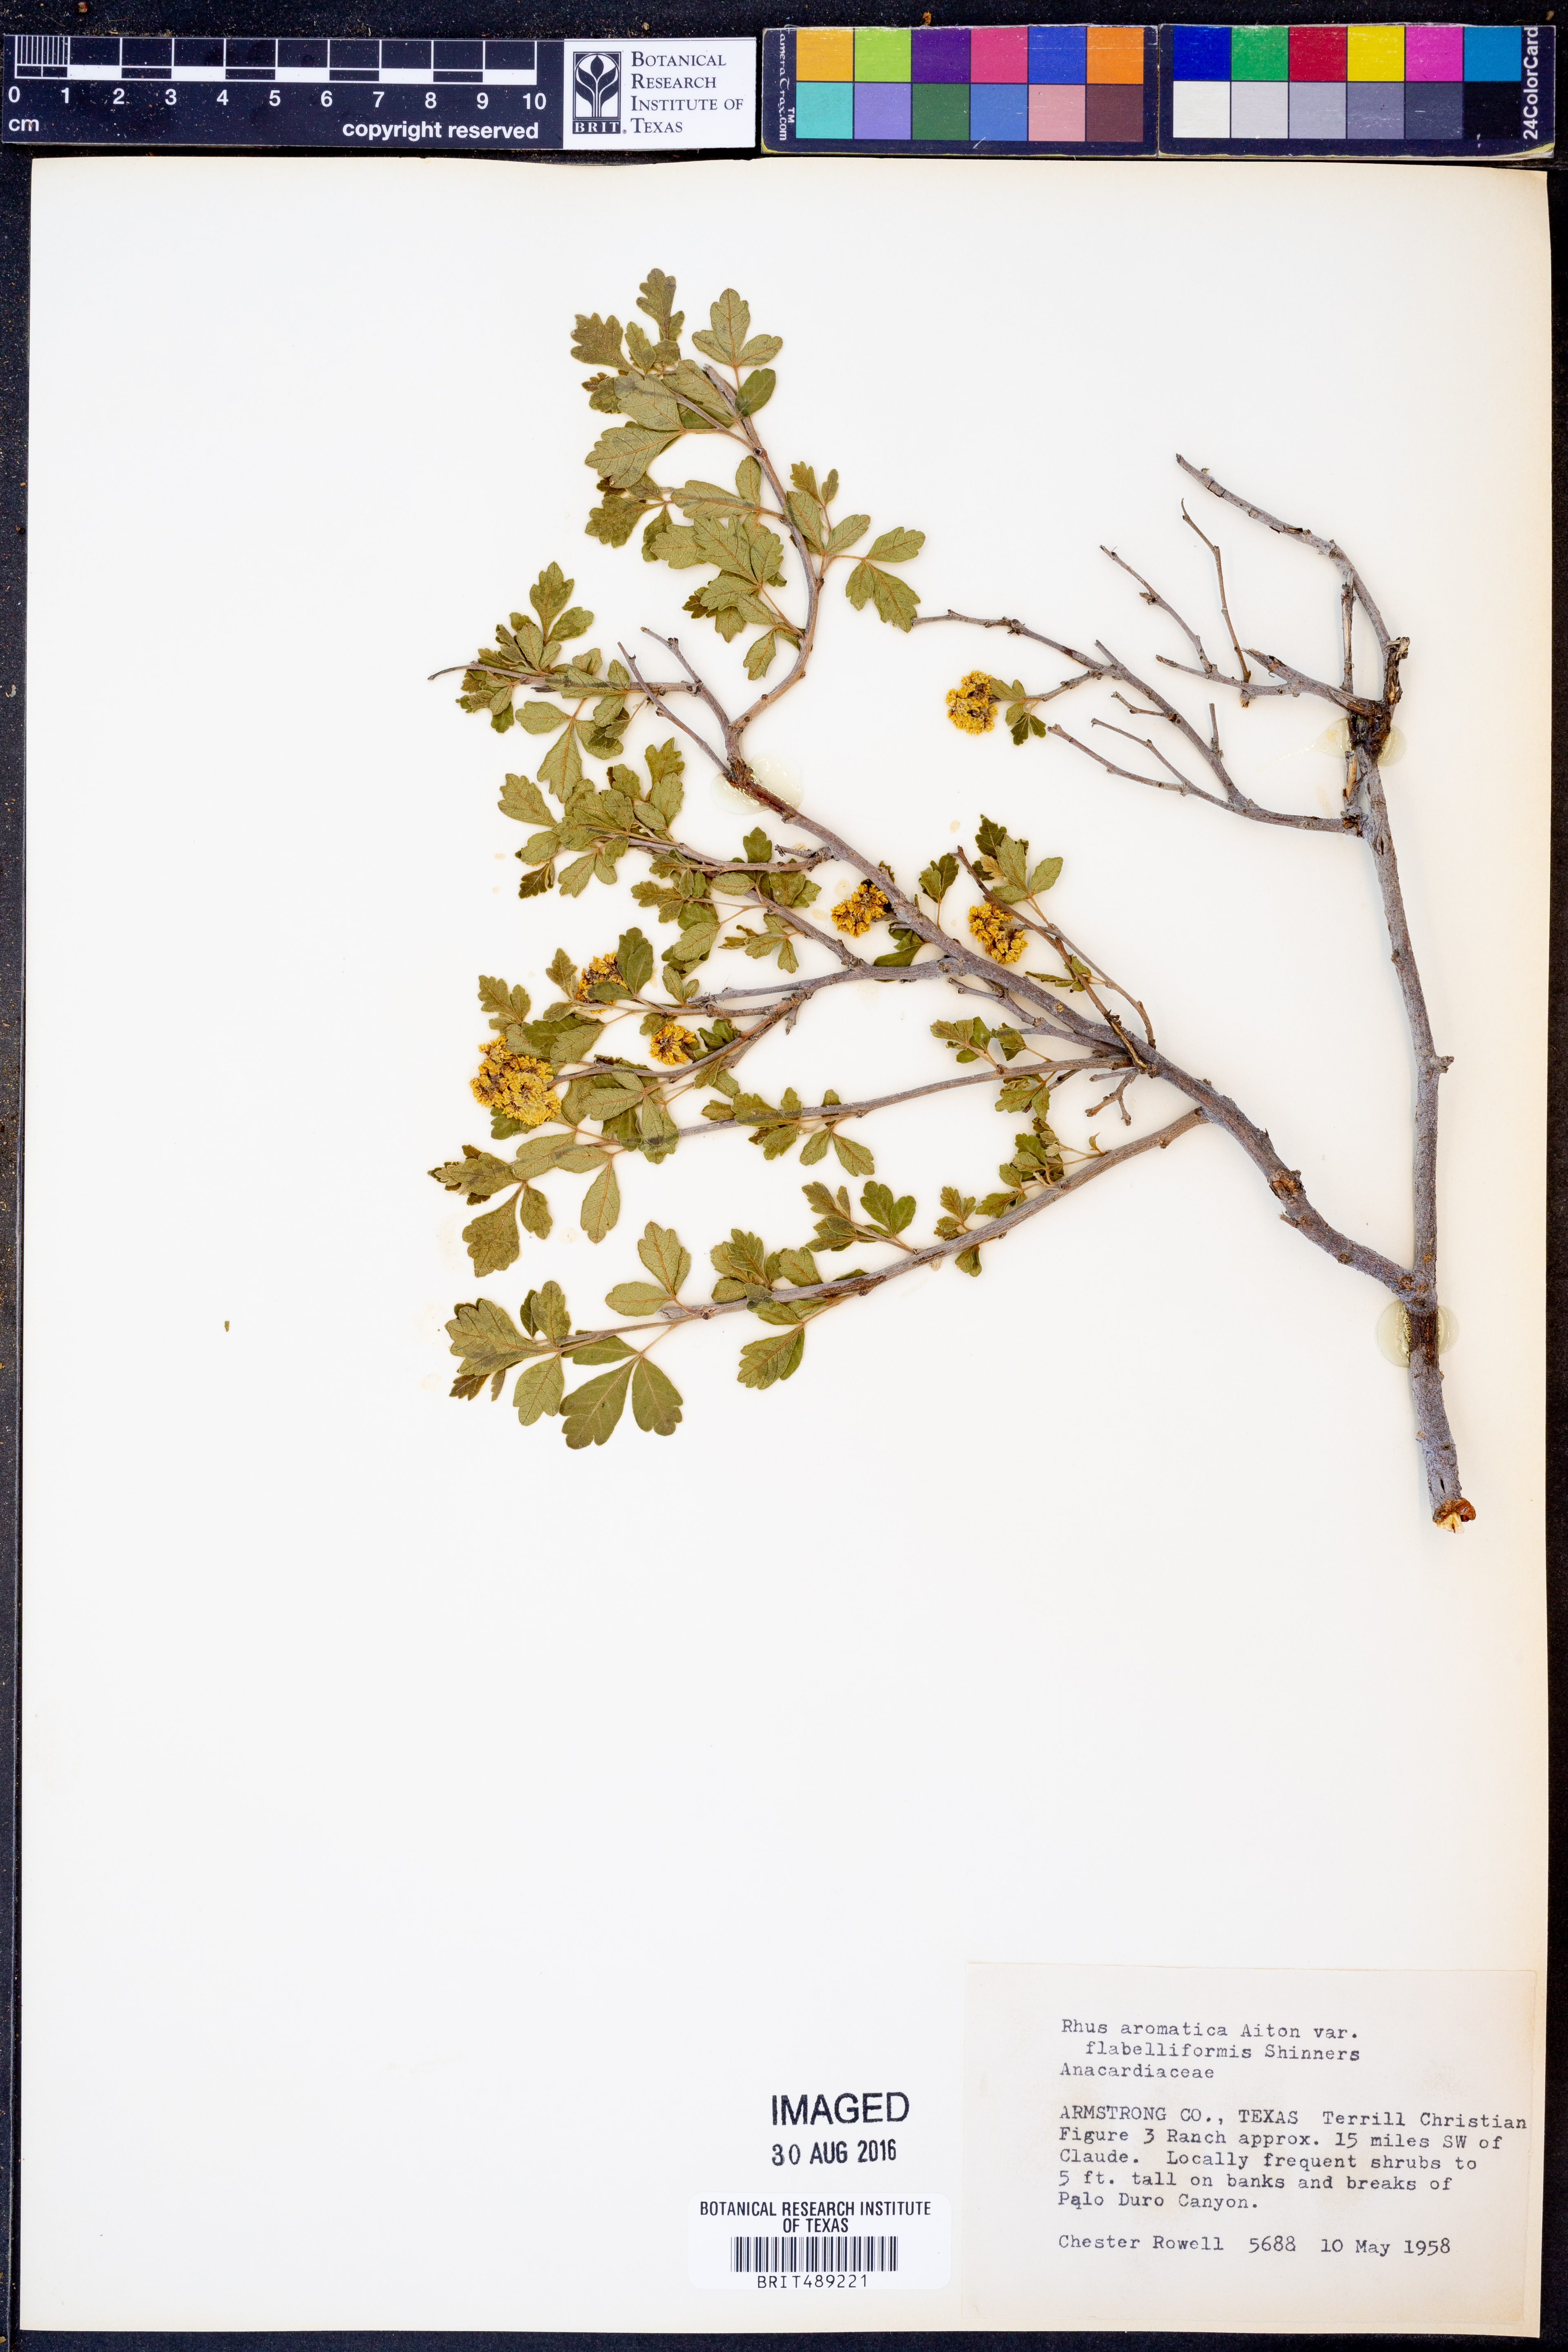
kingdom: Plantae
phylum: Tracheophyta
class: Magnoliopsida
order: Sapindales
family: Anacardiaceae
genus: Rhus
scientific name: Rhus trilobata
